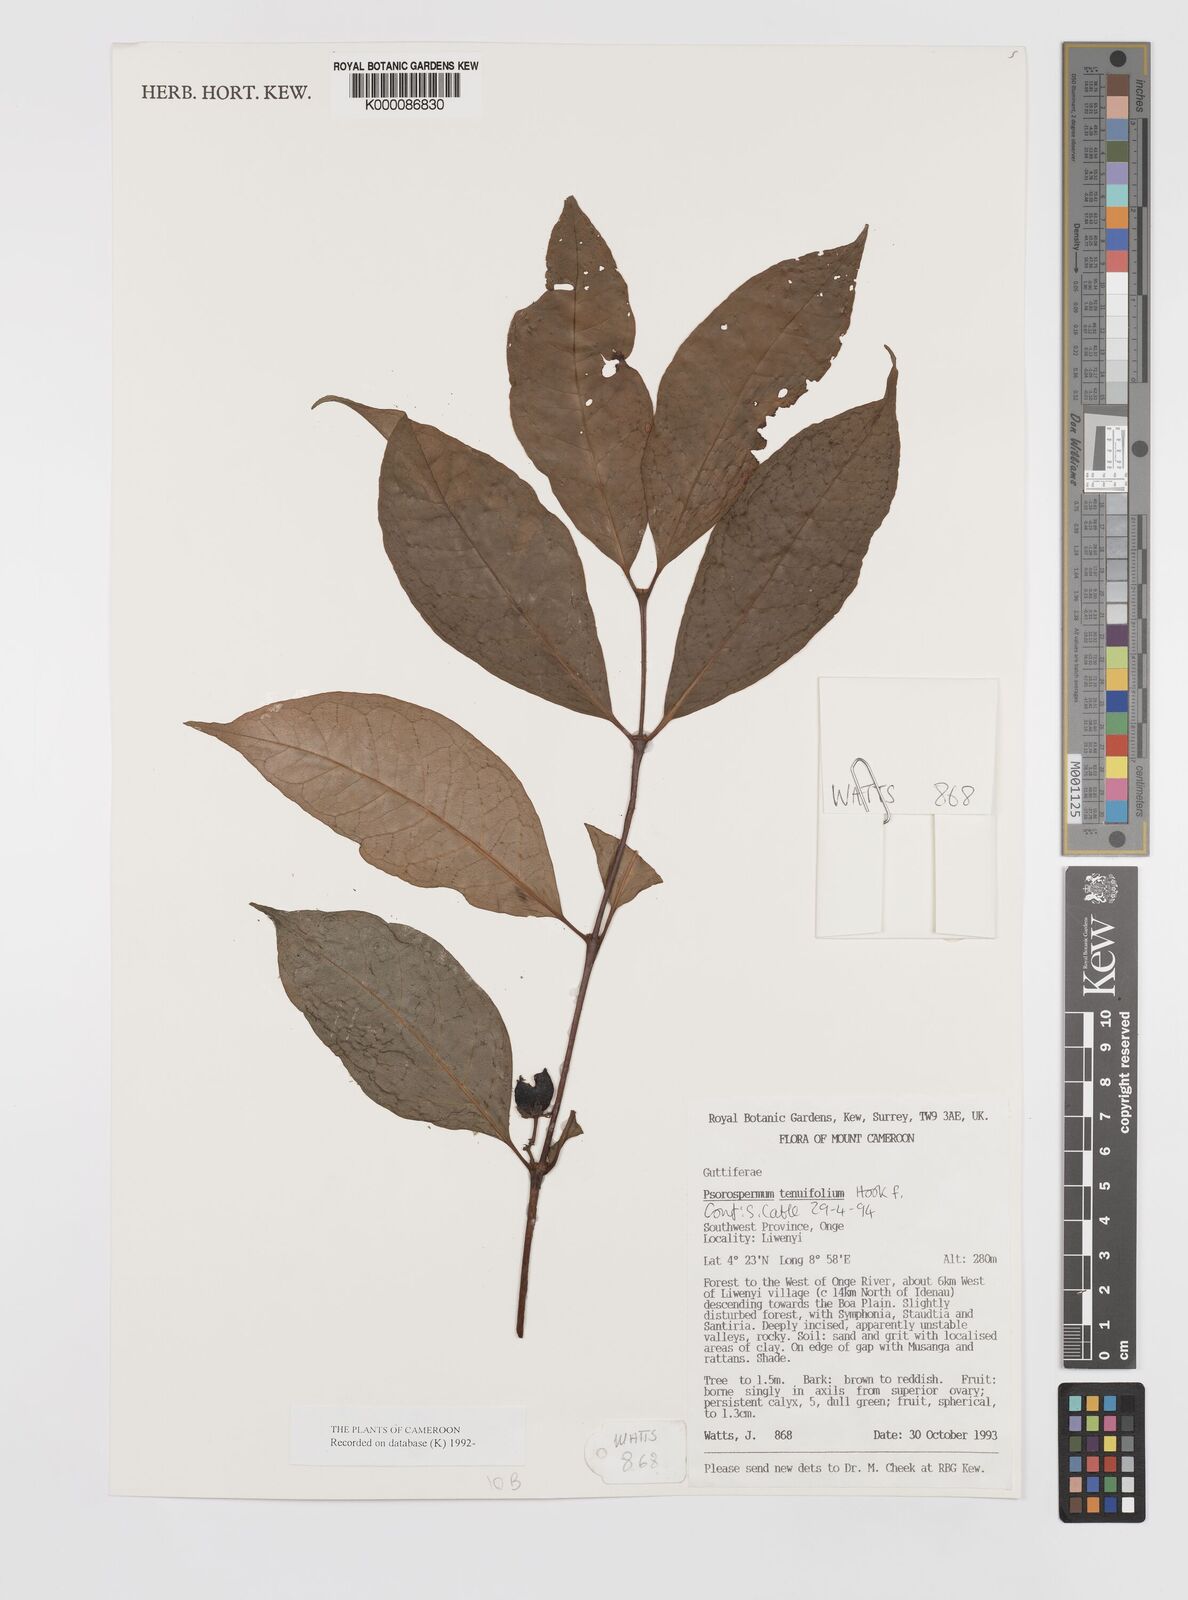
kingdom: Plantae
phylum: Tracheophyta
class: Magnoliopsida
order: Malpighiales
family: Hypericaceae
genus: Psorospermum
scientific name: Psorospermum tenuifolium
